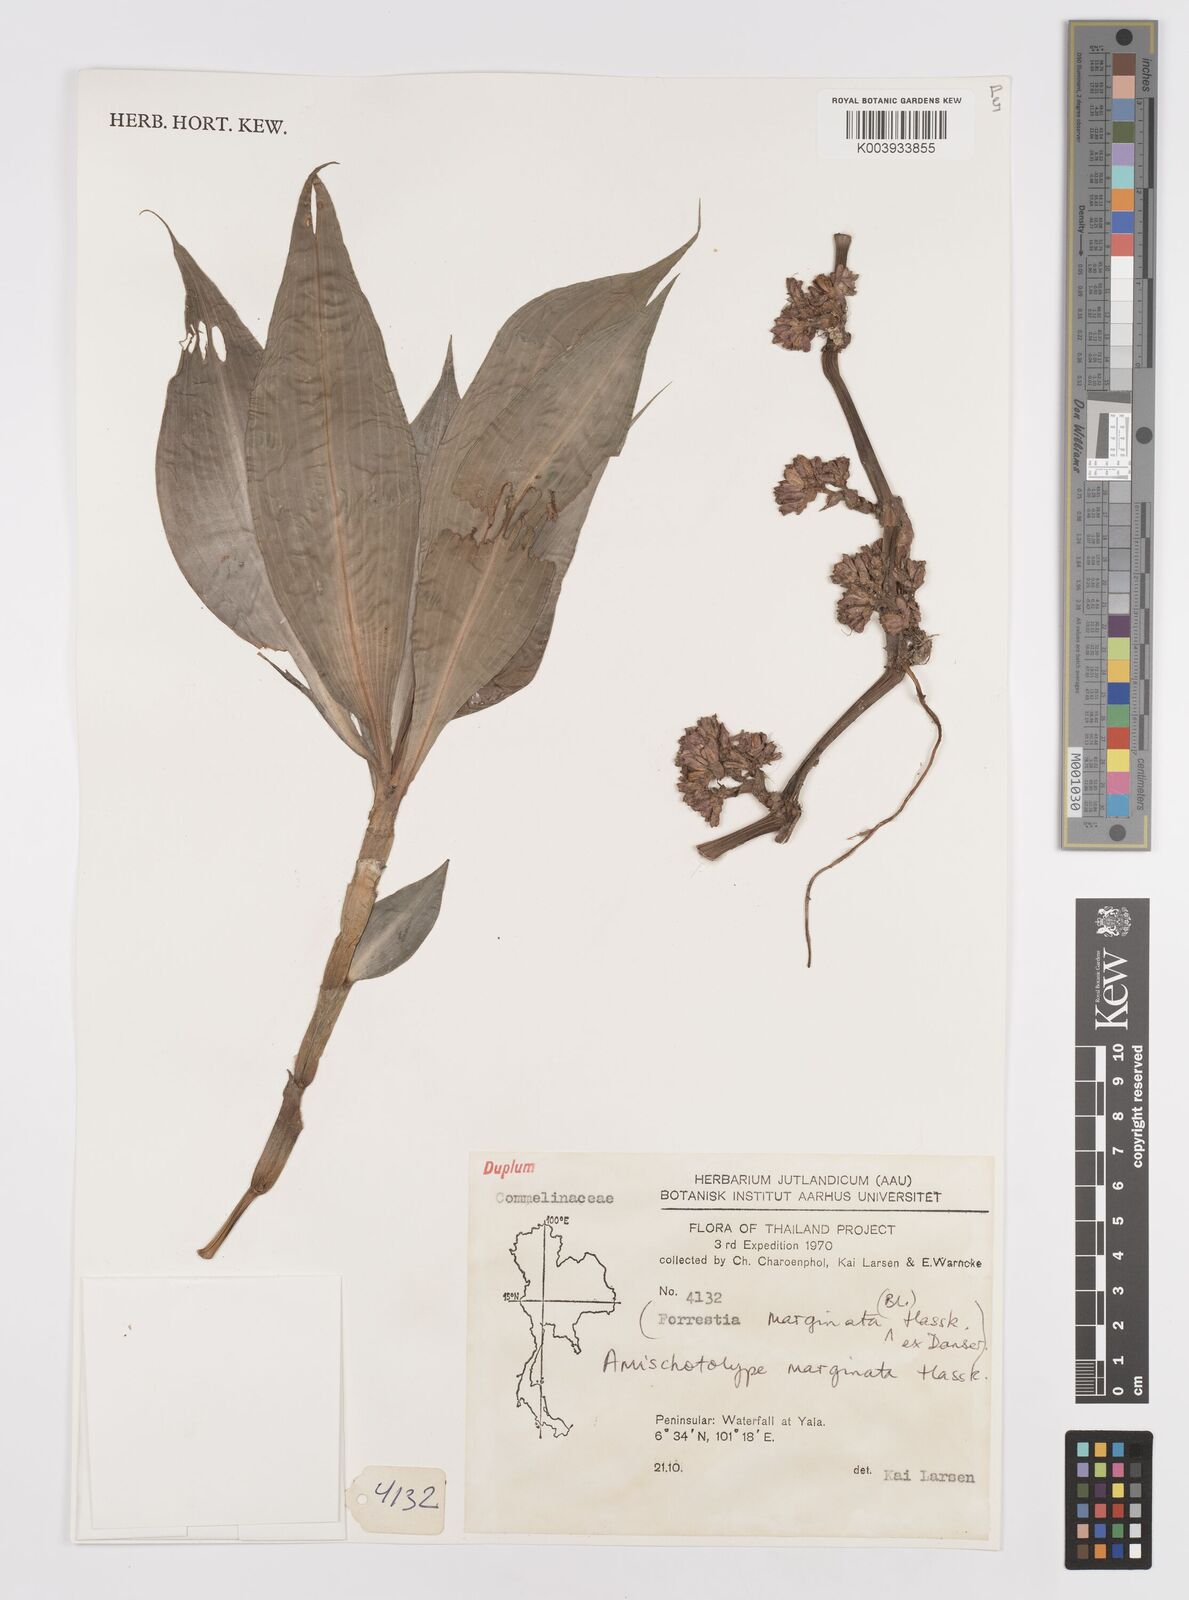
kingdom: Plantae
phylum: Tracheophyta
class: Liliopsida
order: Commelinales
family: Commelinaceae
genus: Amischotolype
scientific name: Amischotolype marginata
